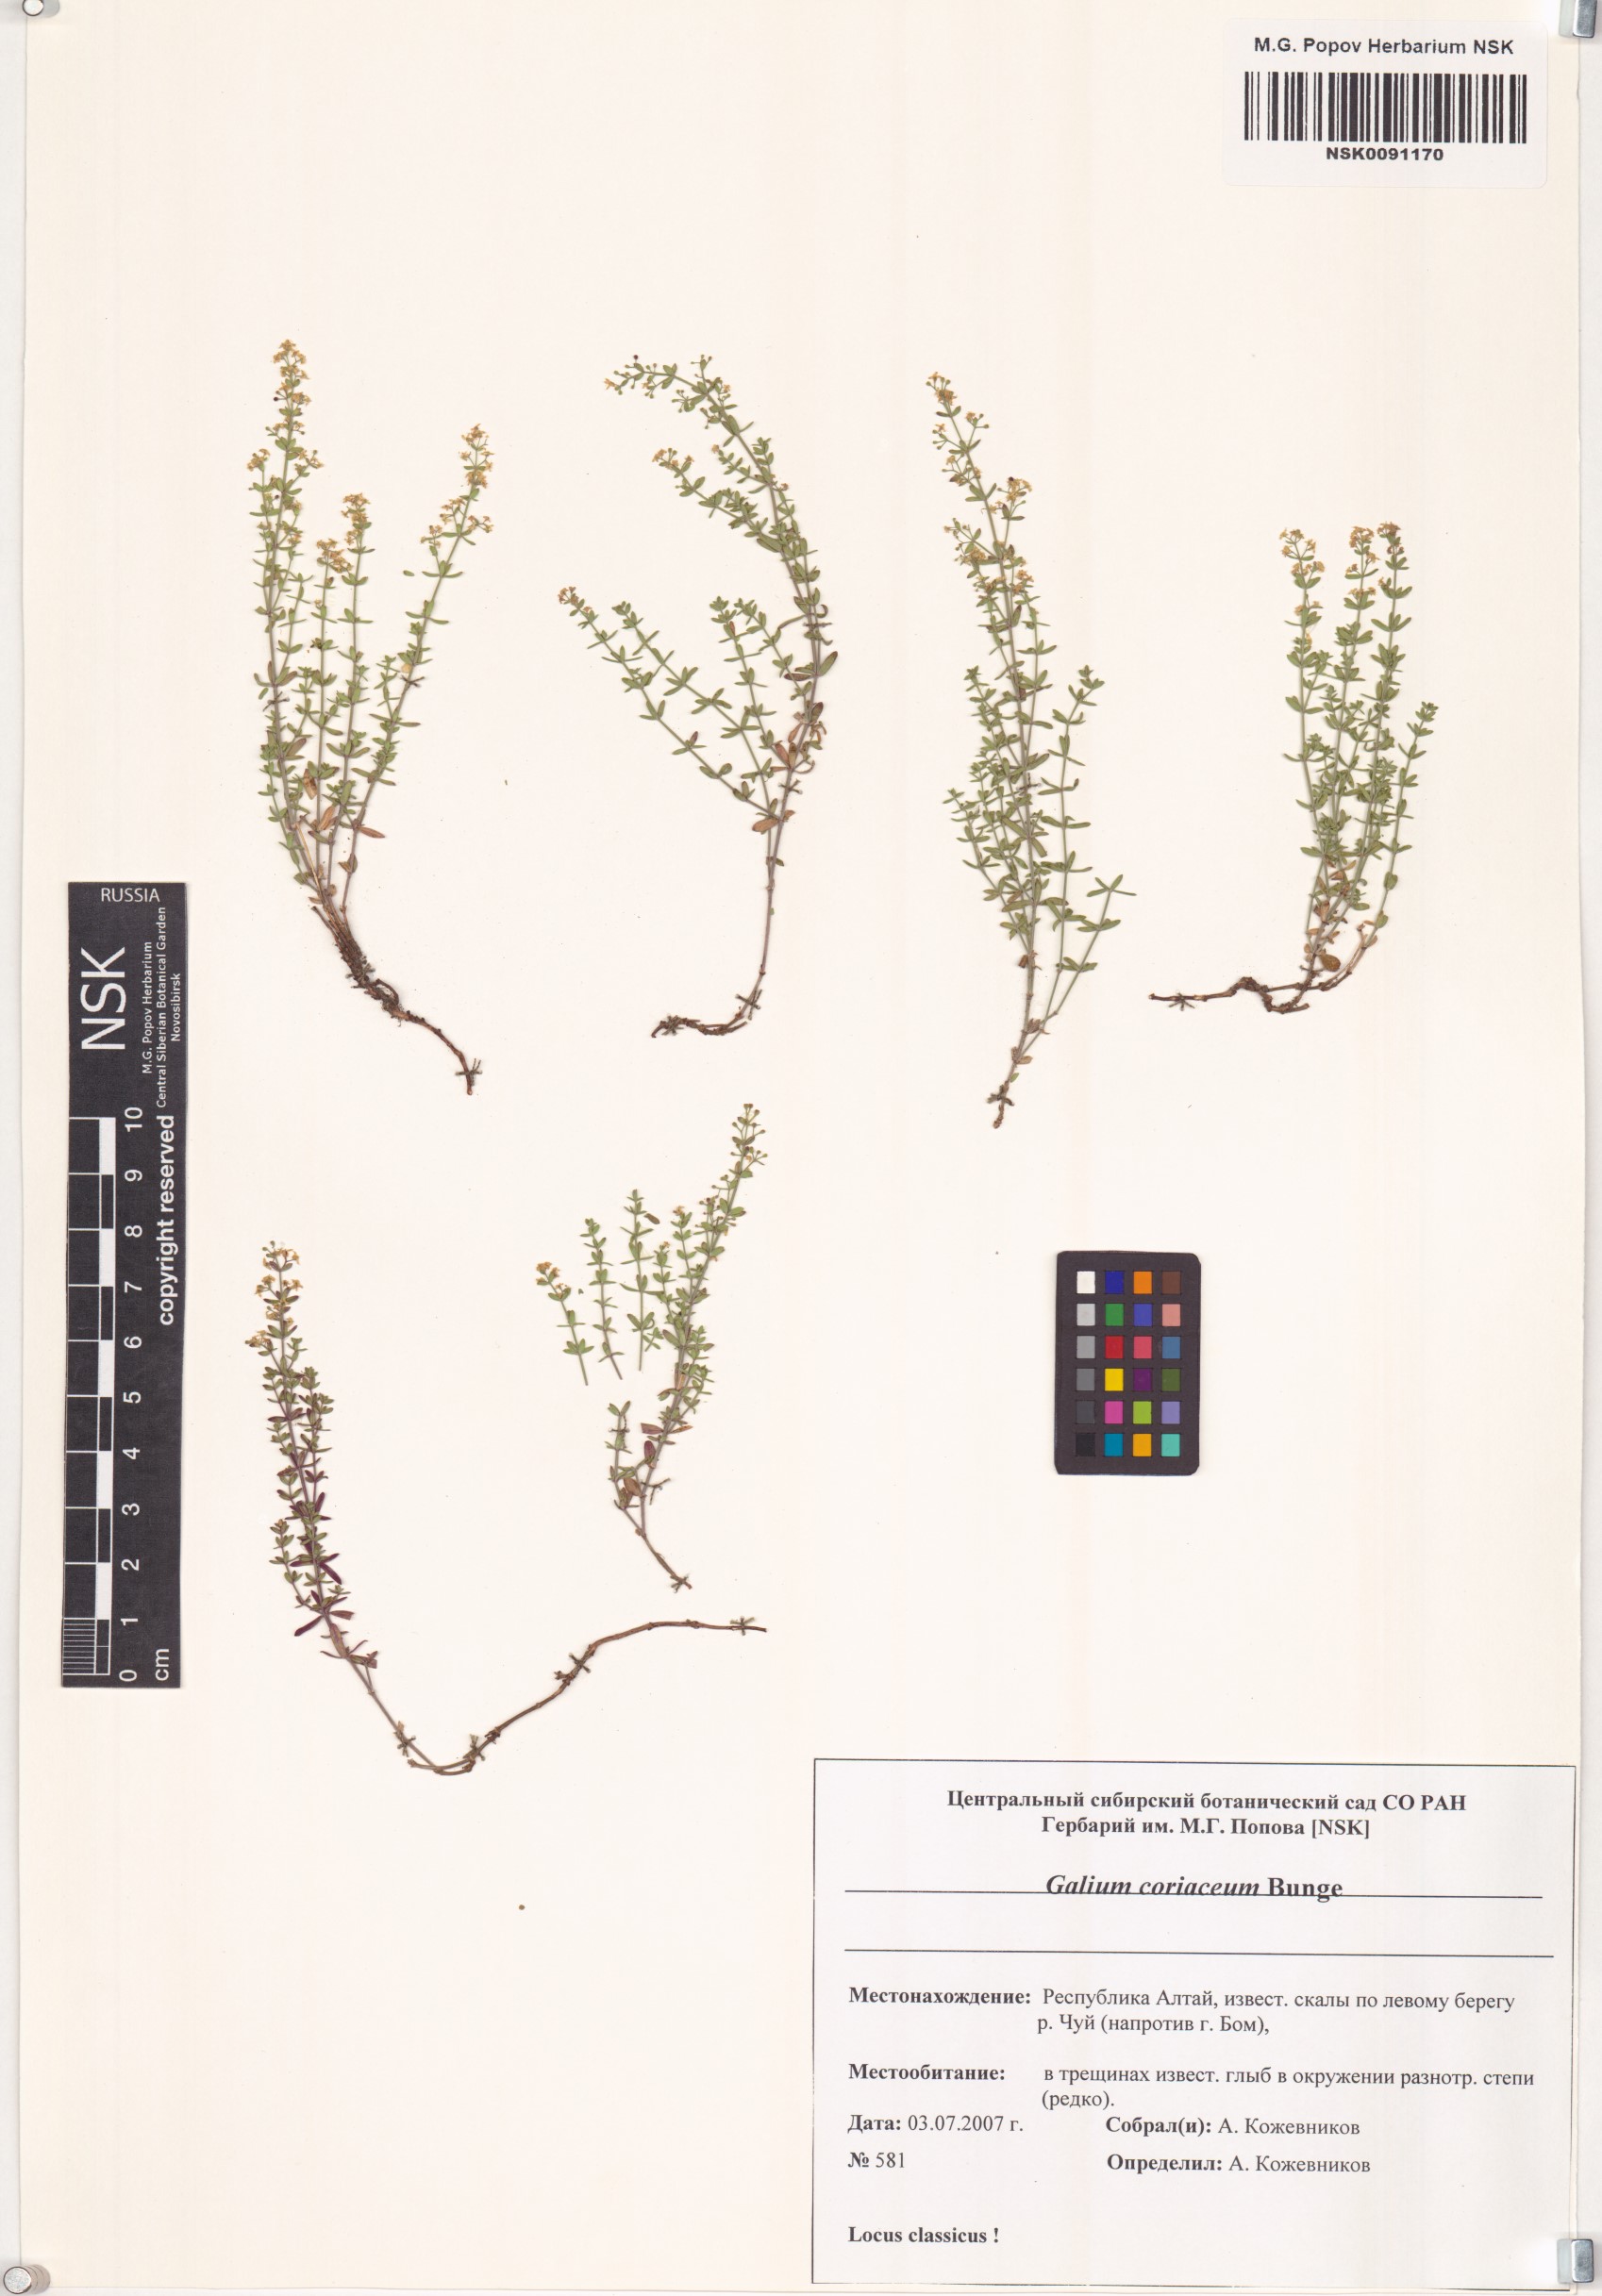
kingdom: Plantae
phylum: Tracheophyta
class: Magnoliopsida
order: Gentianales
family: Rubiaceae
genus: Galium
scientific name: Galium coriaceum
